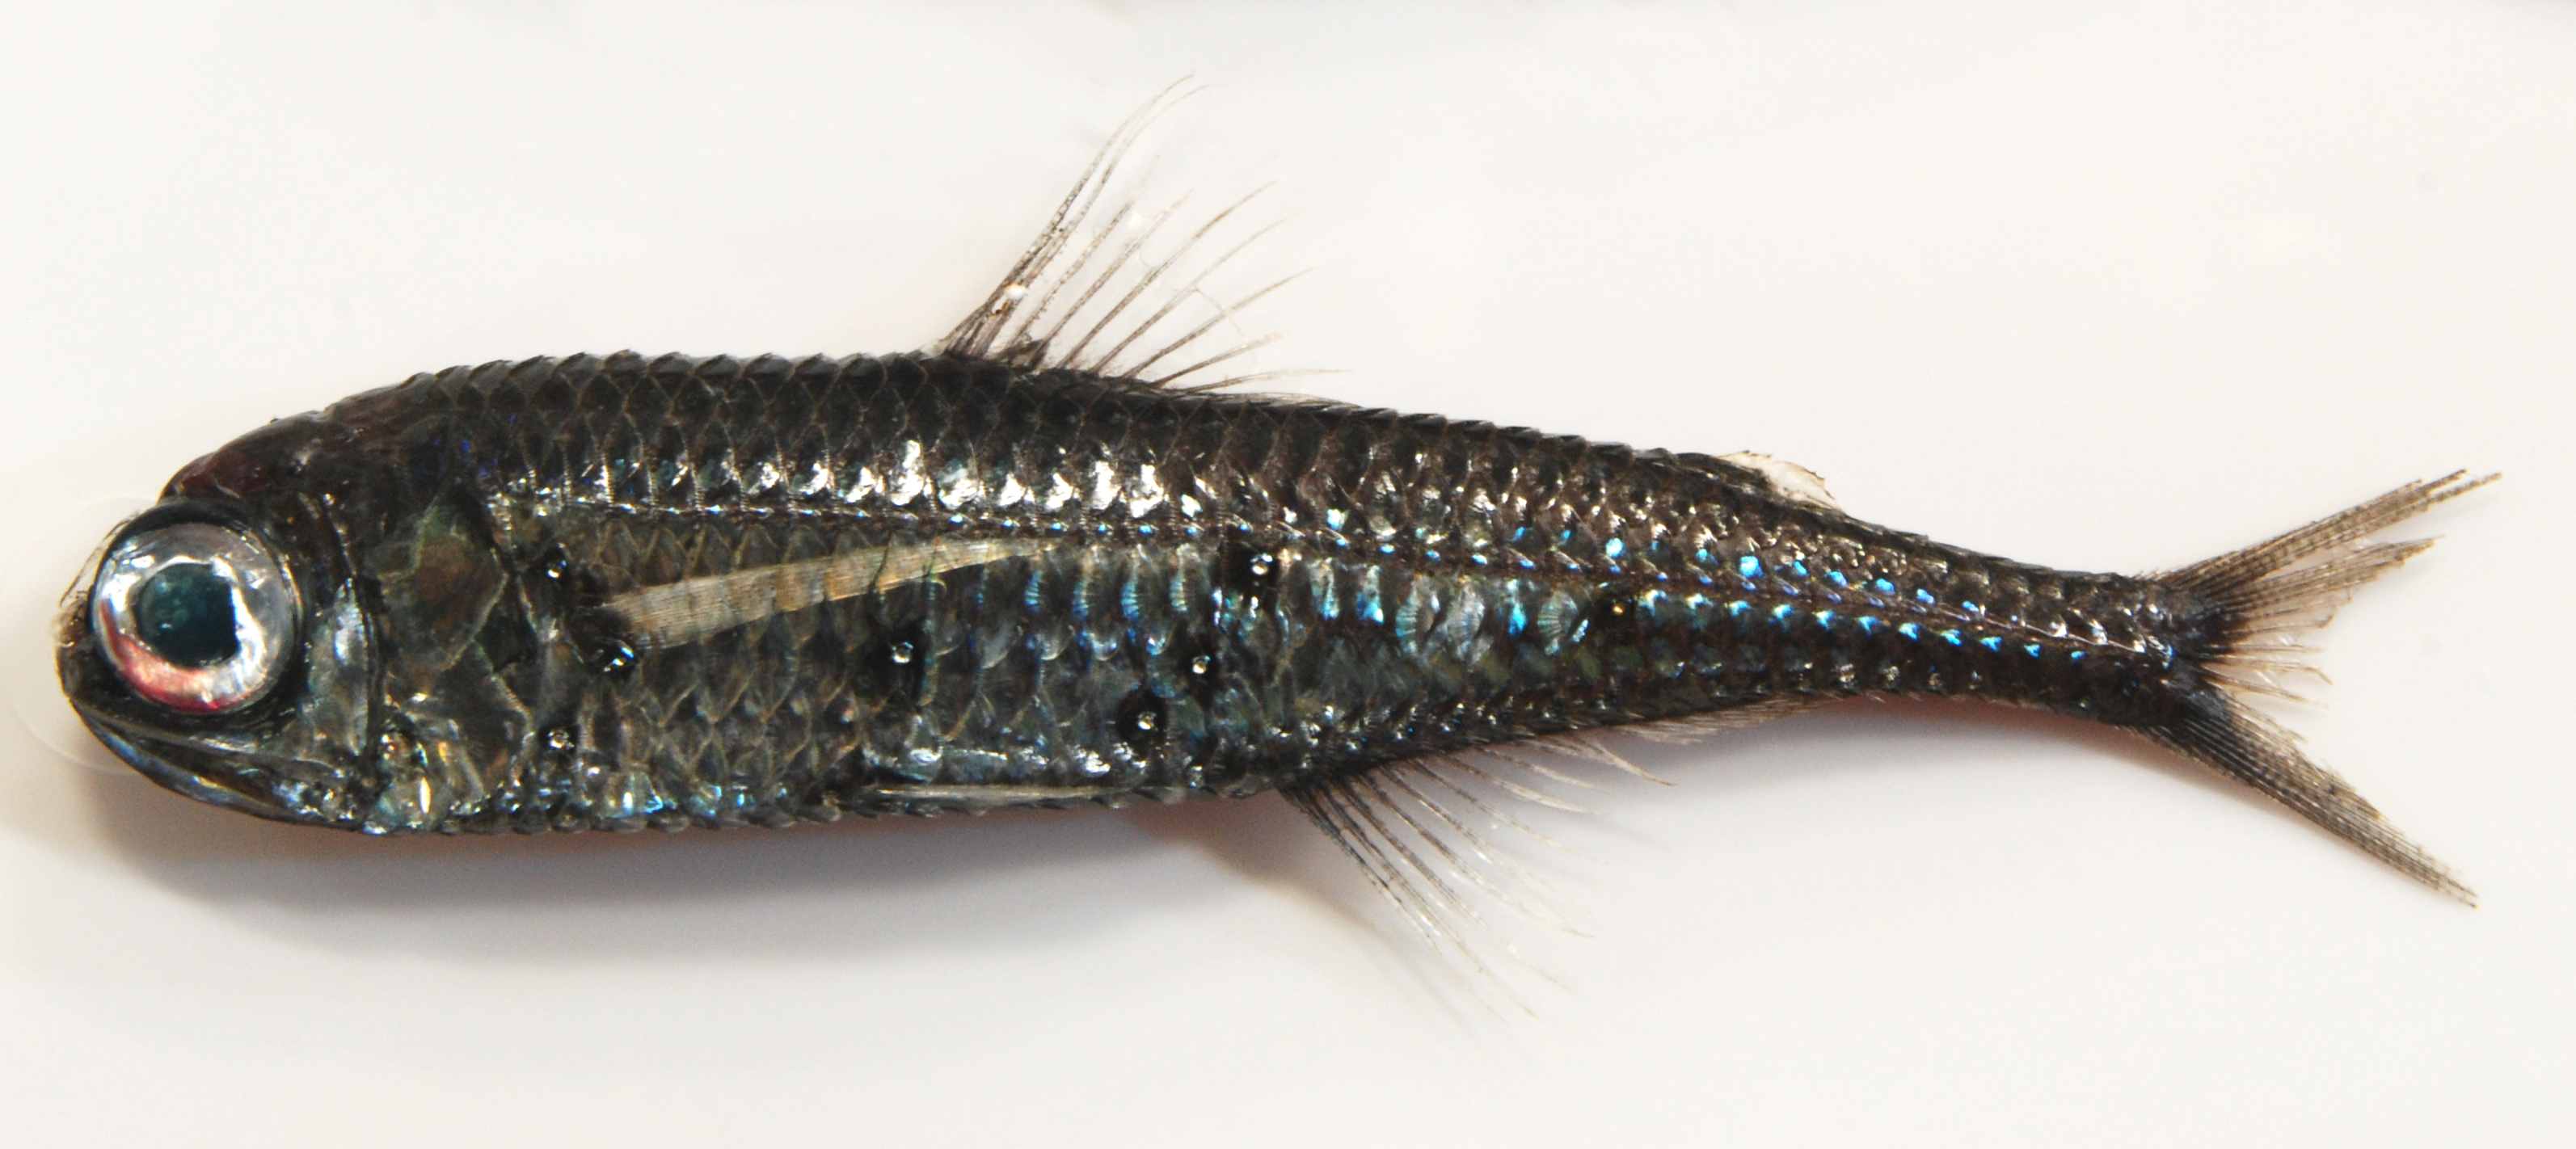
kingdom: Animalia
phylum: Chordata
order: Myctophiformes
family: Myctophidae
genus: Myctophum
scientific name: Myctophum spinosum
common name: Spinose lanternfish
